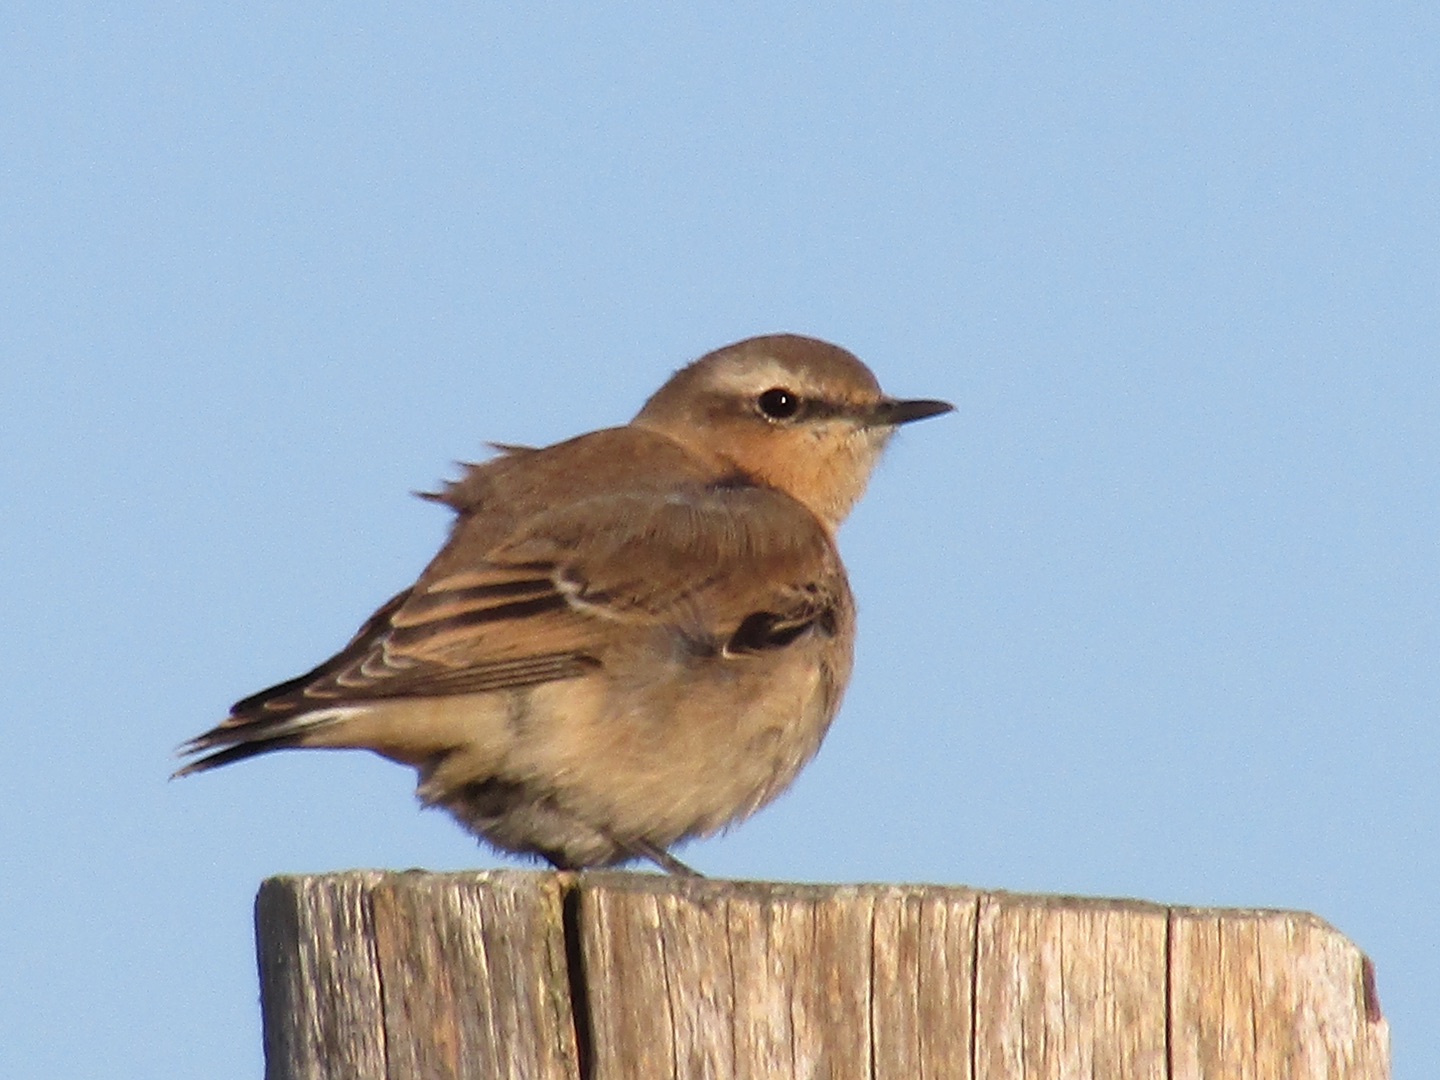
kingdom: Animalia
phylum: Chordata
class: Aves
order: Passeriformes
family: Muscicapidae
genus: Oenanthe
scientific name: Oenanthe oenanthe
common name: Stenpikker
